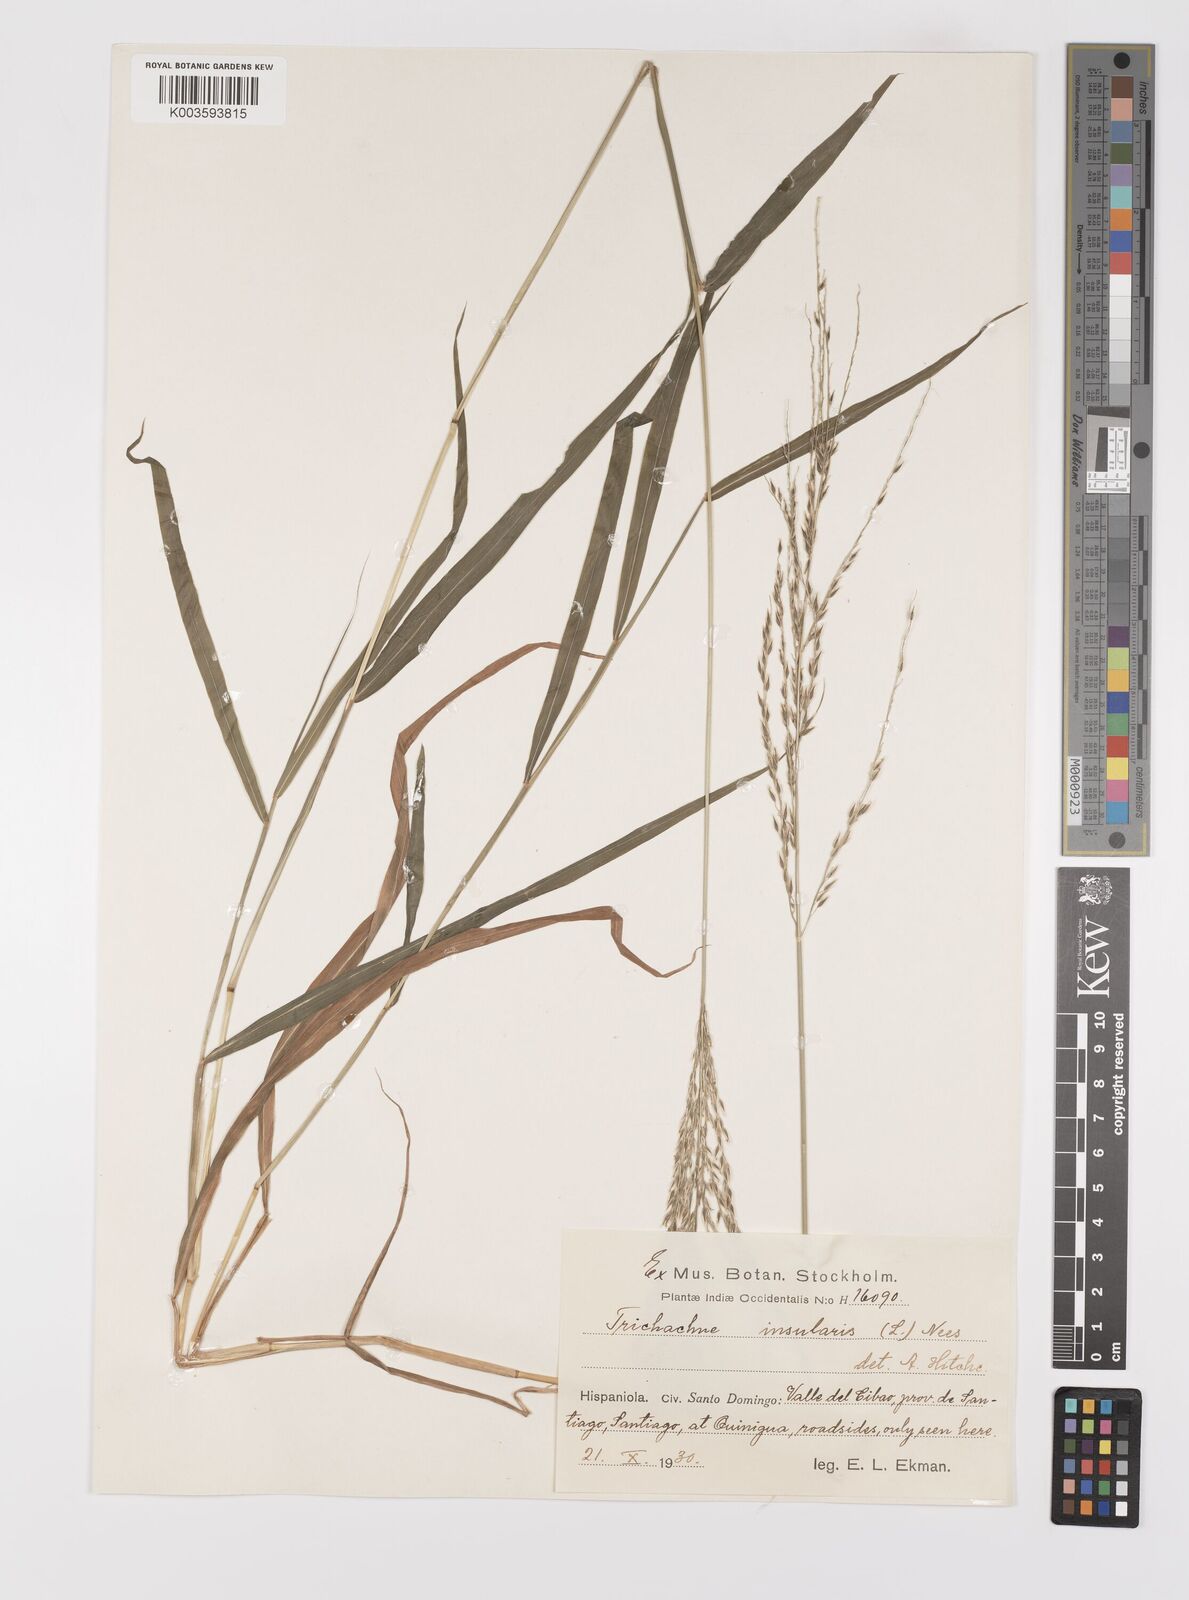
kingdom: Plantae
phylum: Tracheophyta
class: Liliopsida
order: Poales
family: Poaceae
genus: Digitaria
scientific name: Digitaria sellowii
